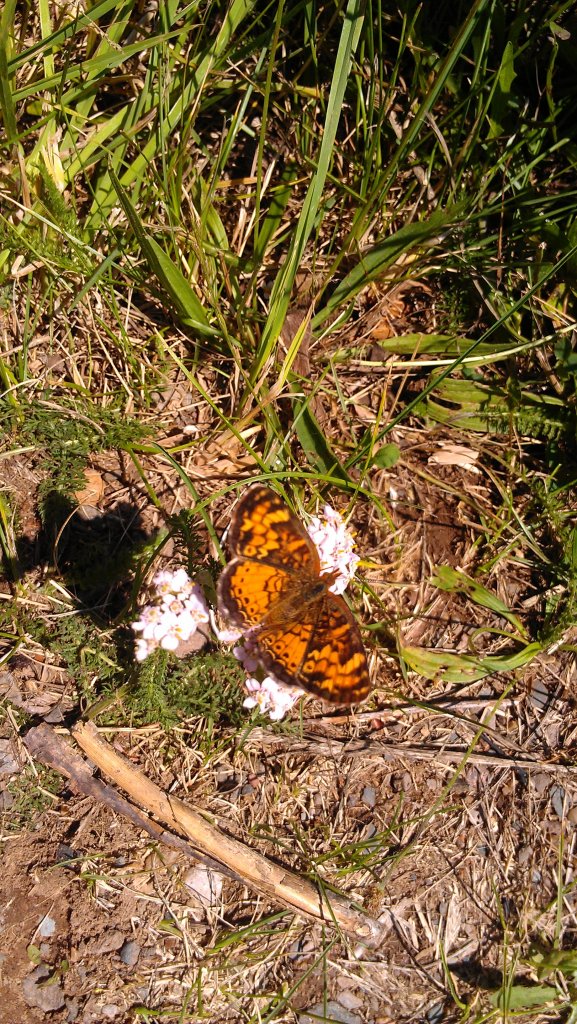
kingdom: Animalia
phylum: Arthropoda
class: Insecta
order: Lepidoptera
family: Nymphalidae
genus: Phyciodes
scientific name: Phyciodes tharos
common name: Northern Crescent
